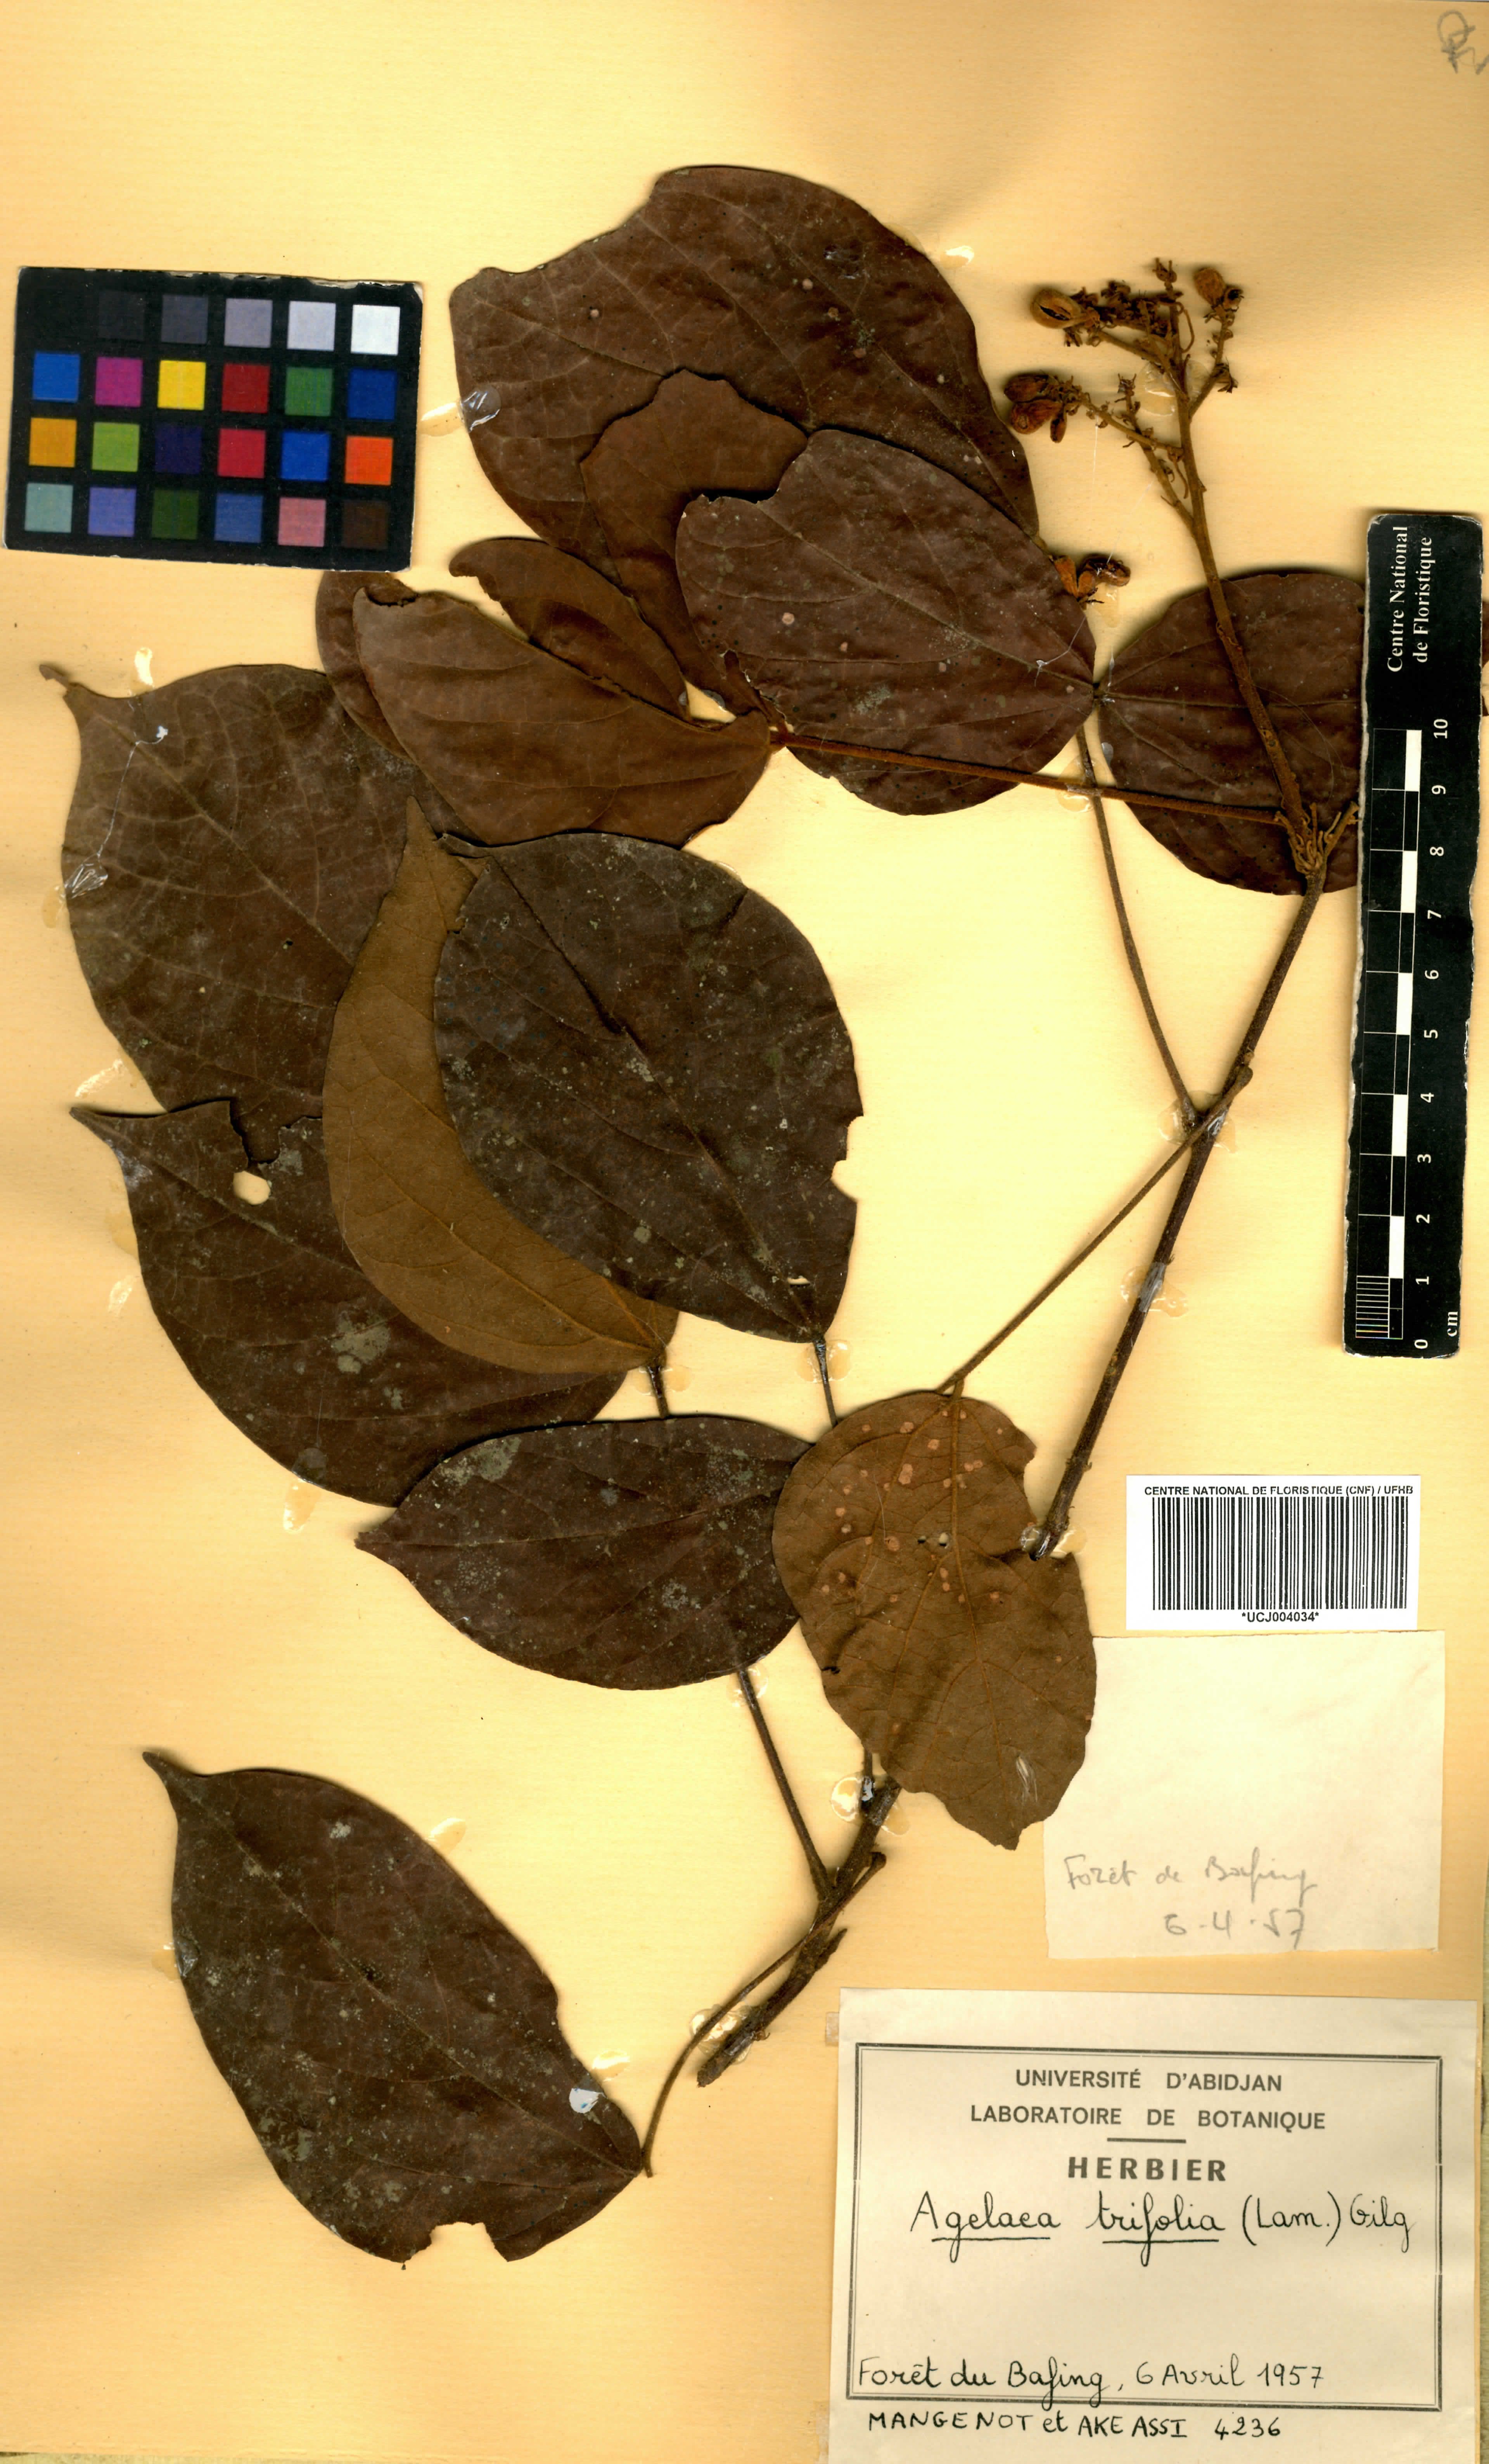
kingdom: Plantae
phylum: Tracheophyta
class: Magnoliopsida
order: Oxalidales
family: Connaraceae
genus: Agelaea
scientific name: Agelaea pentagyna
